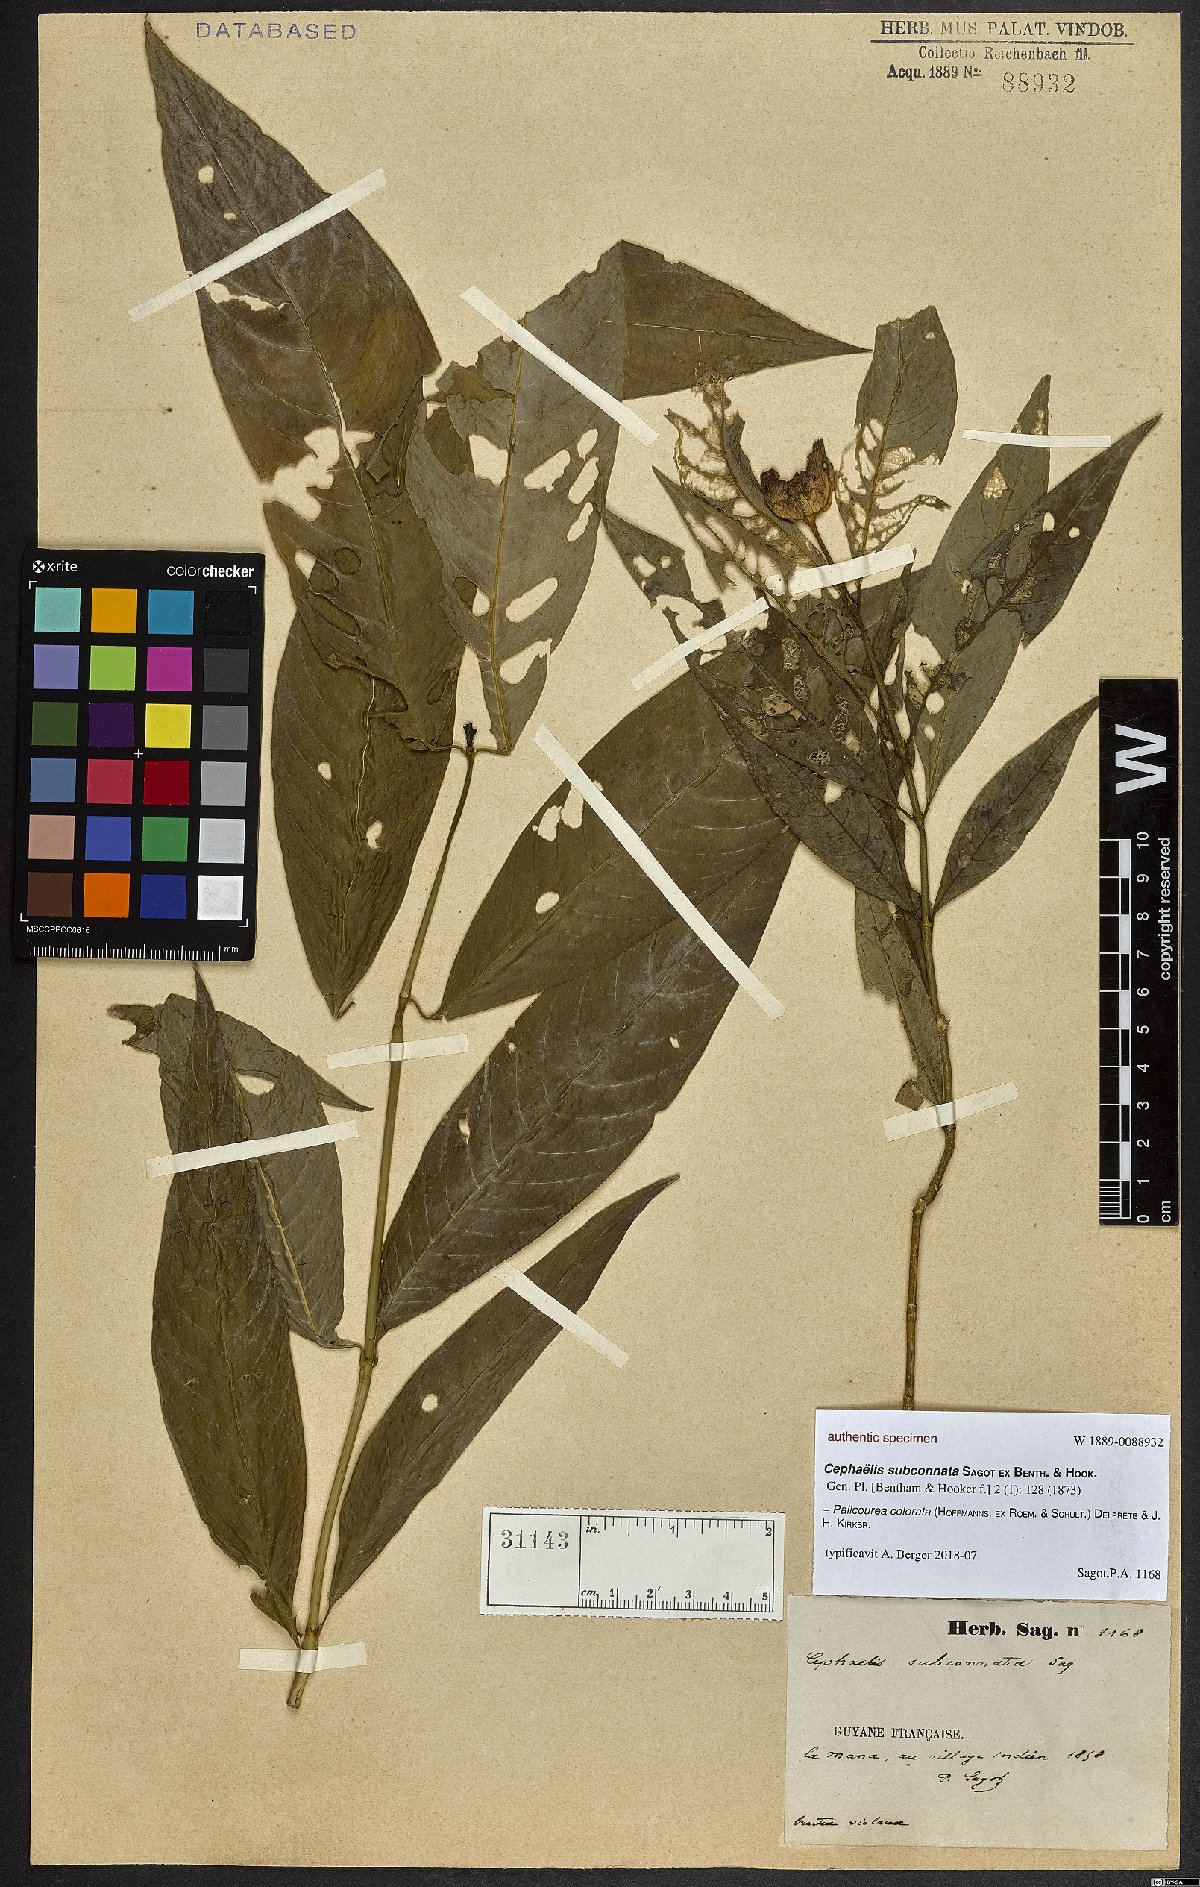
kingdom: Plantae
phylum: Tracheophyta
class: Magnoliopsida
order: Gentianales
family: Rubiaceae
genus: Psychotria
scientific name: Psychotria Cephaelis subconnata
